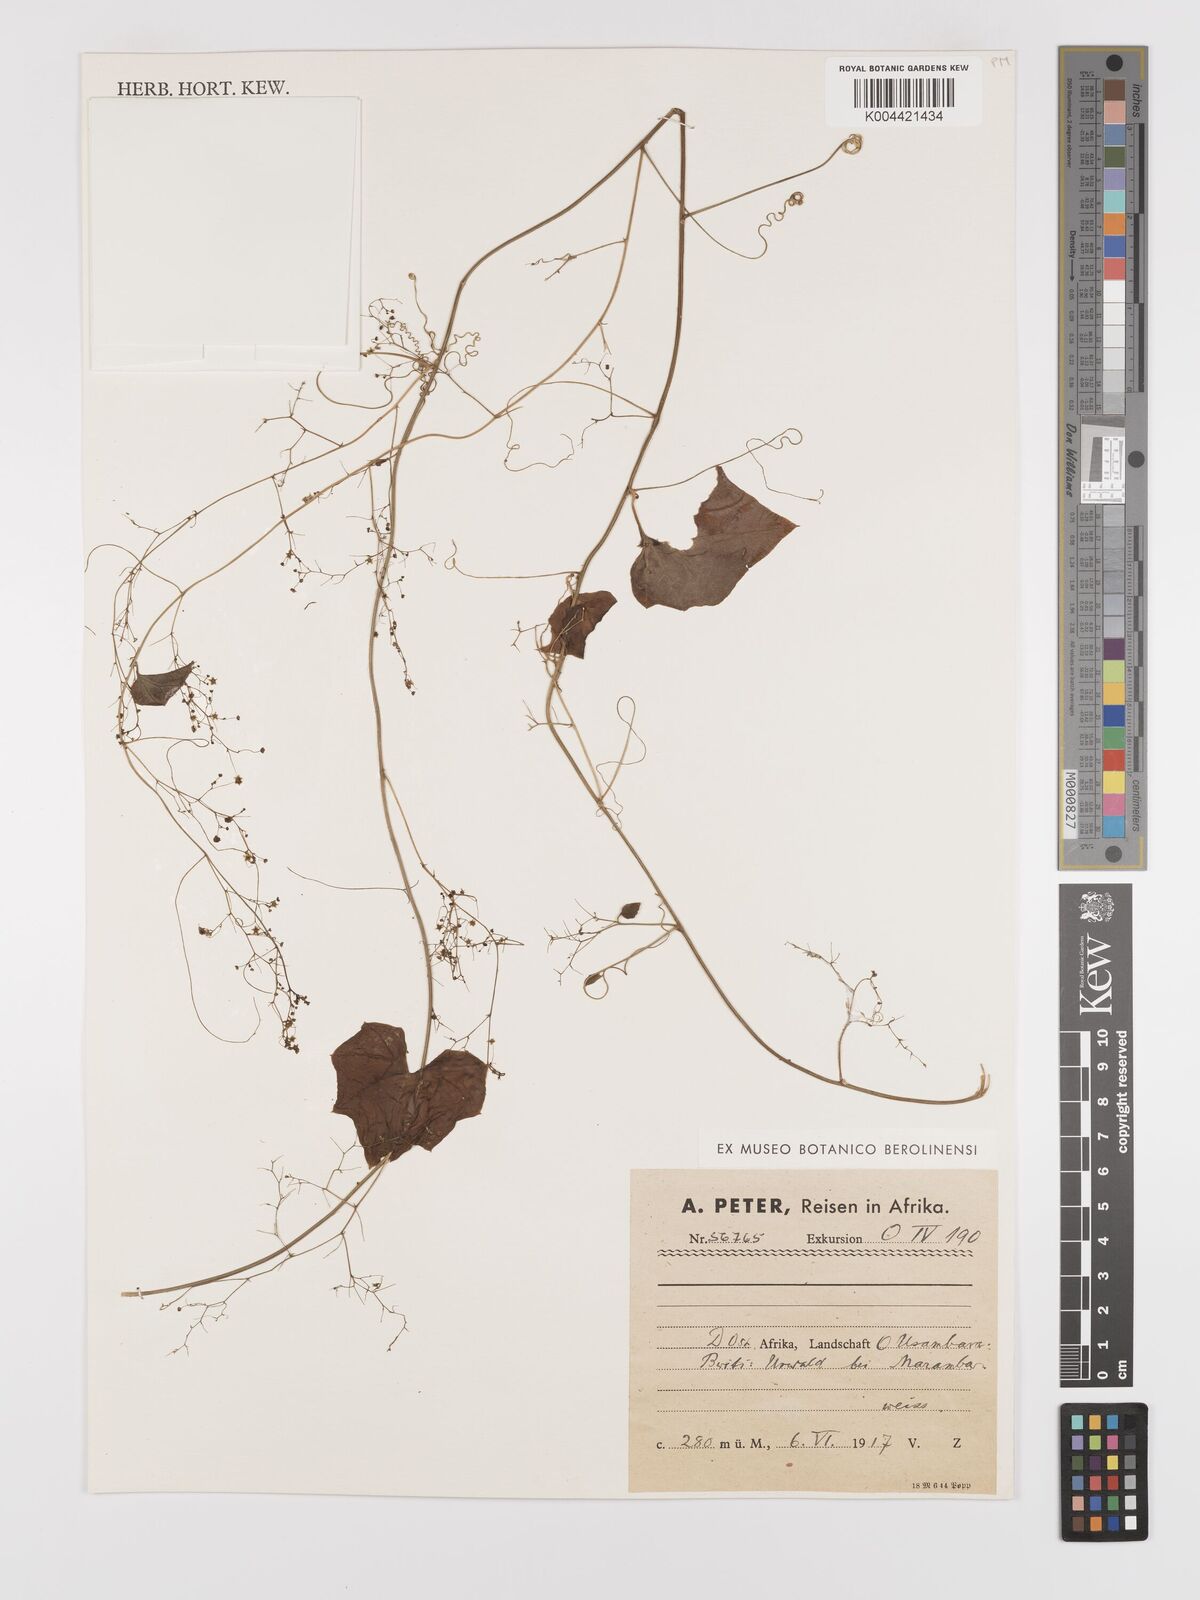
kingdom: Plantae
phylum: Tracheophyta
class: Magnoliopsida
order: Cucurbitales
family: Cucurbitaceae
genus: Cyclantheropsis
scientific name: Cyclantheropsis parviflora
